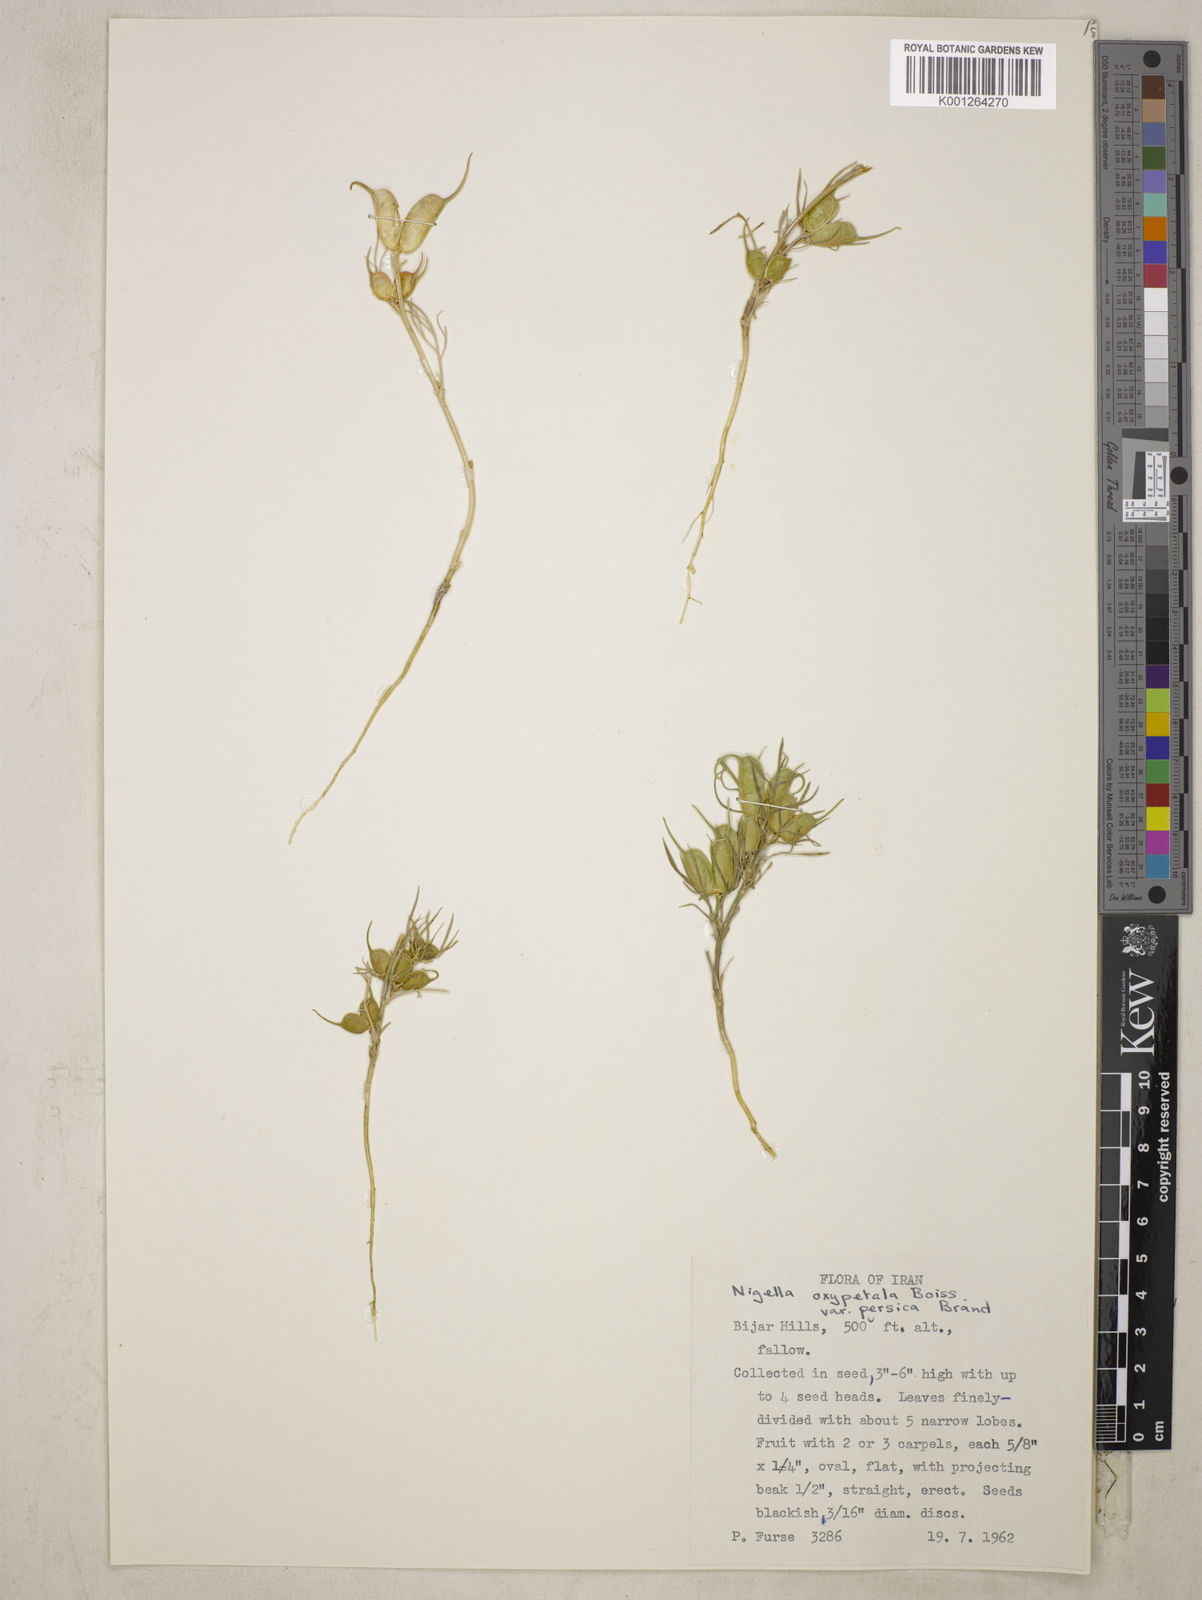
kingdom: Plantae
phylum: Tracheophyta
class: Magnoliopsida
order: Ranunculales
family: Ranunculaceae
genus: Nigella
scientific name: Nigella oxypetala
